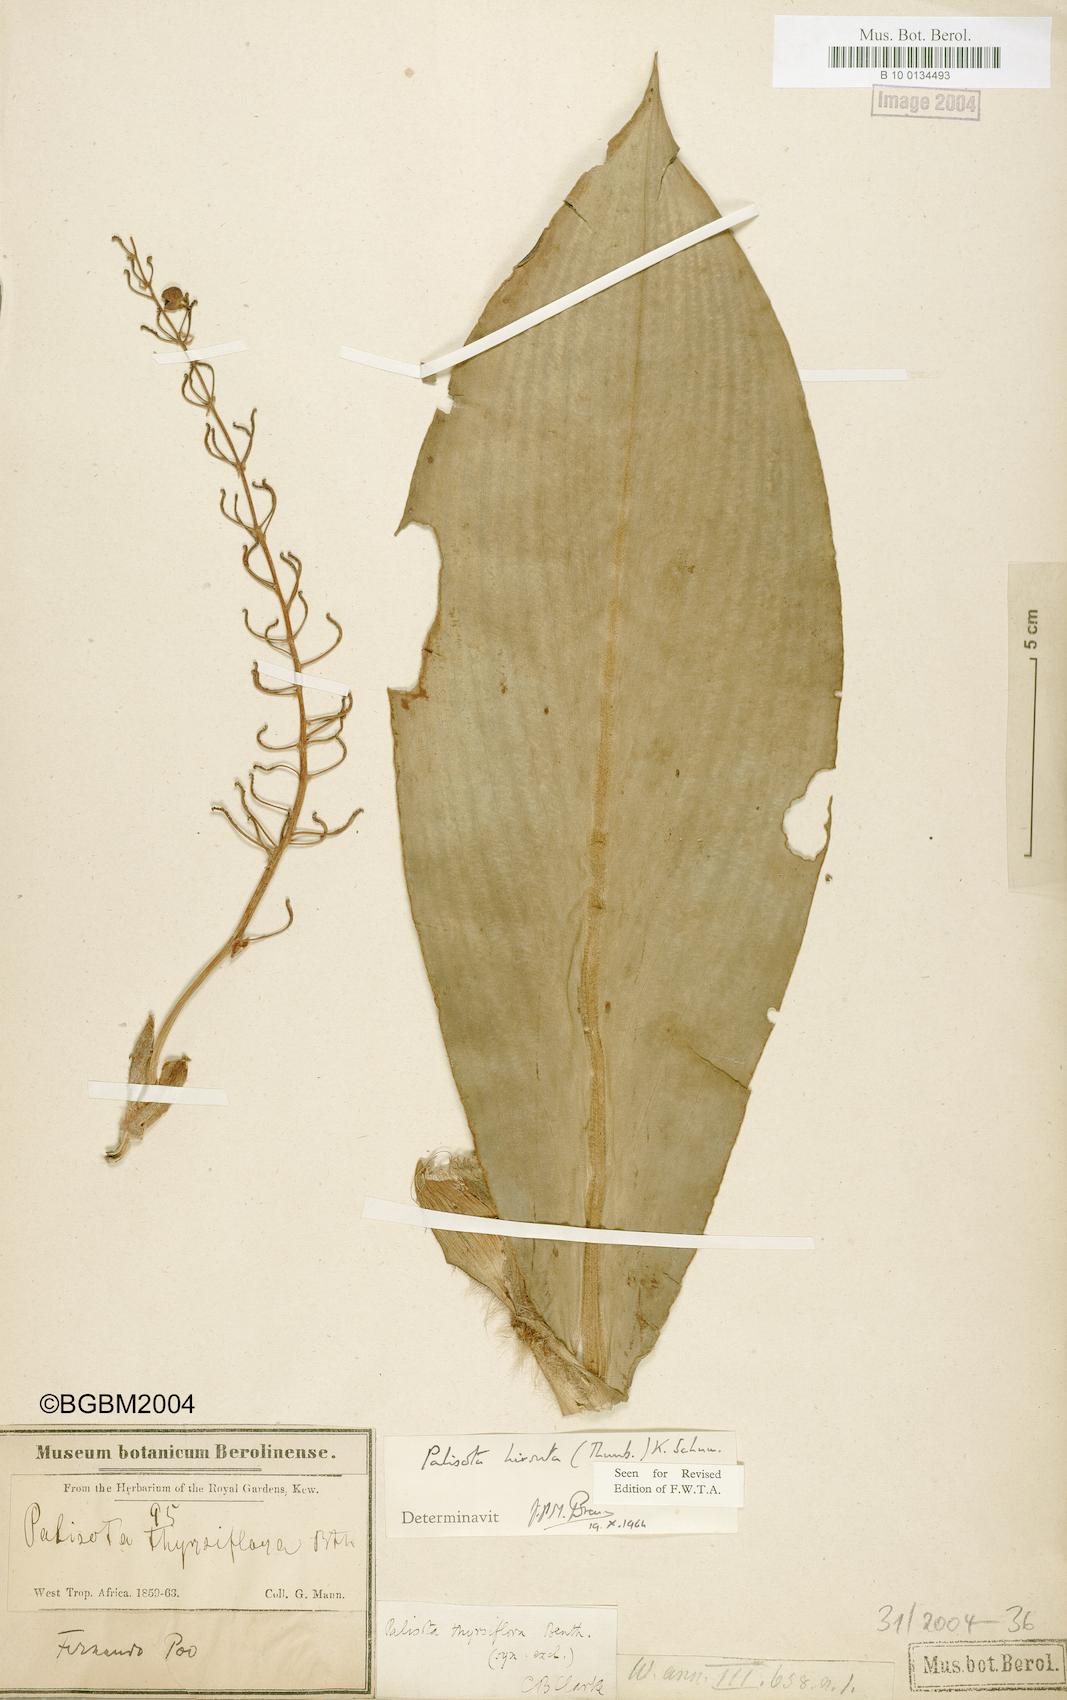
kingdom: Plantae
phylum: Tracheophyta
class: Liliopsida
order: Commelinales
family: Commelinaceae
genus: Palisota
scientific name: Palisota hirsuta
